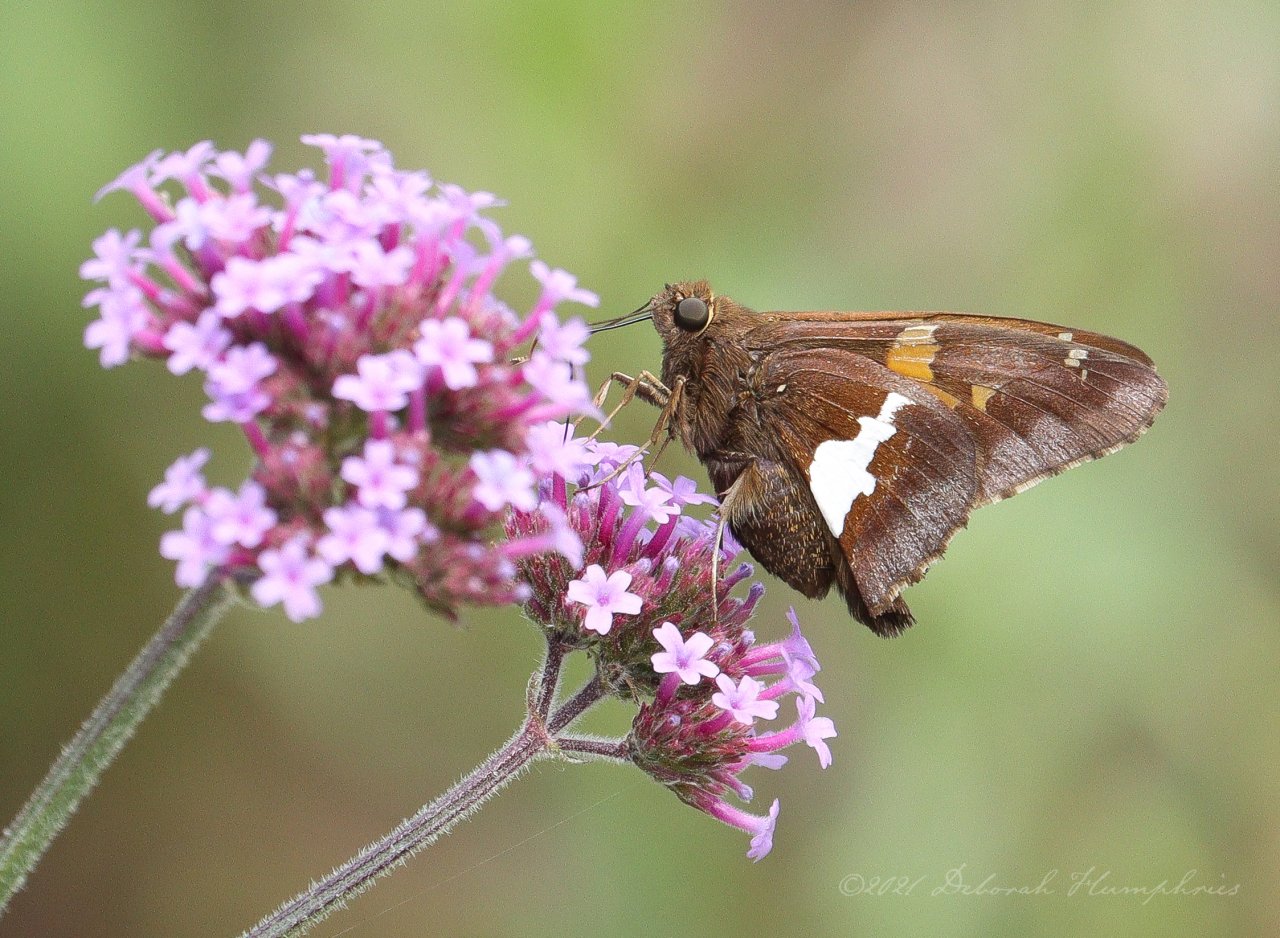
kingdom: Animalia
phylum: Arthropoda
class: Insecta
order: Lepidoptera
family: Hesperiidae
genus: Epargyreus
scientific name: Epargyreus clarus
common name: Silver-spotted Skipper
